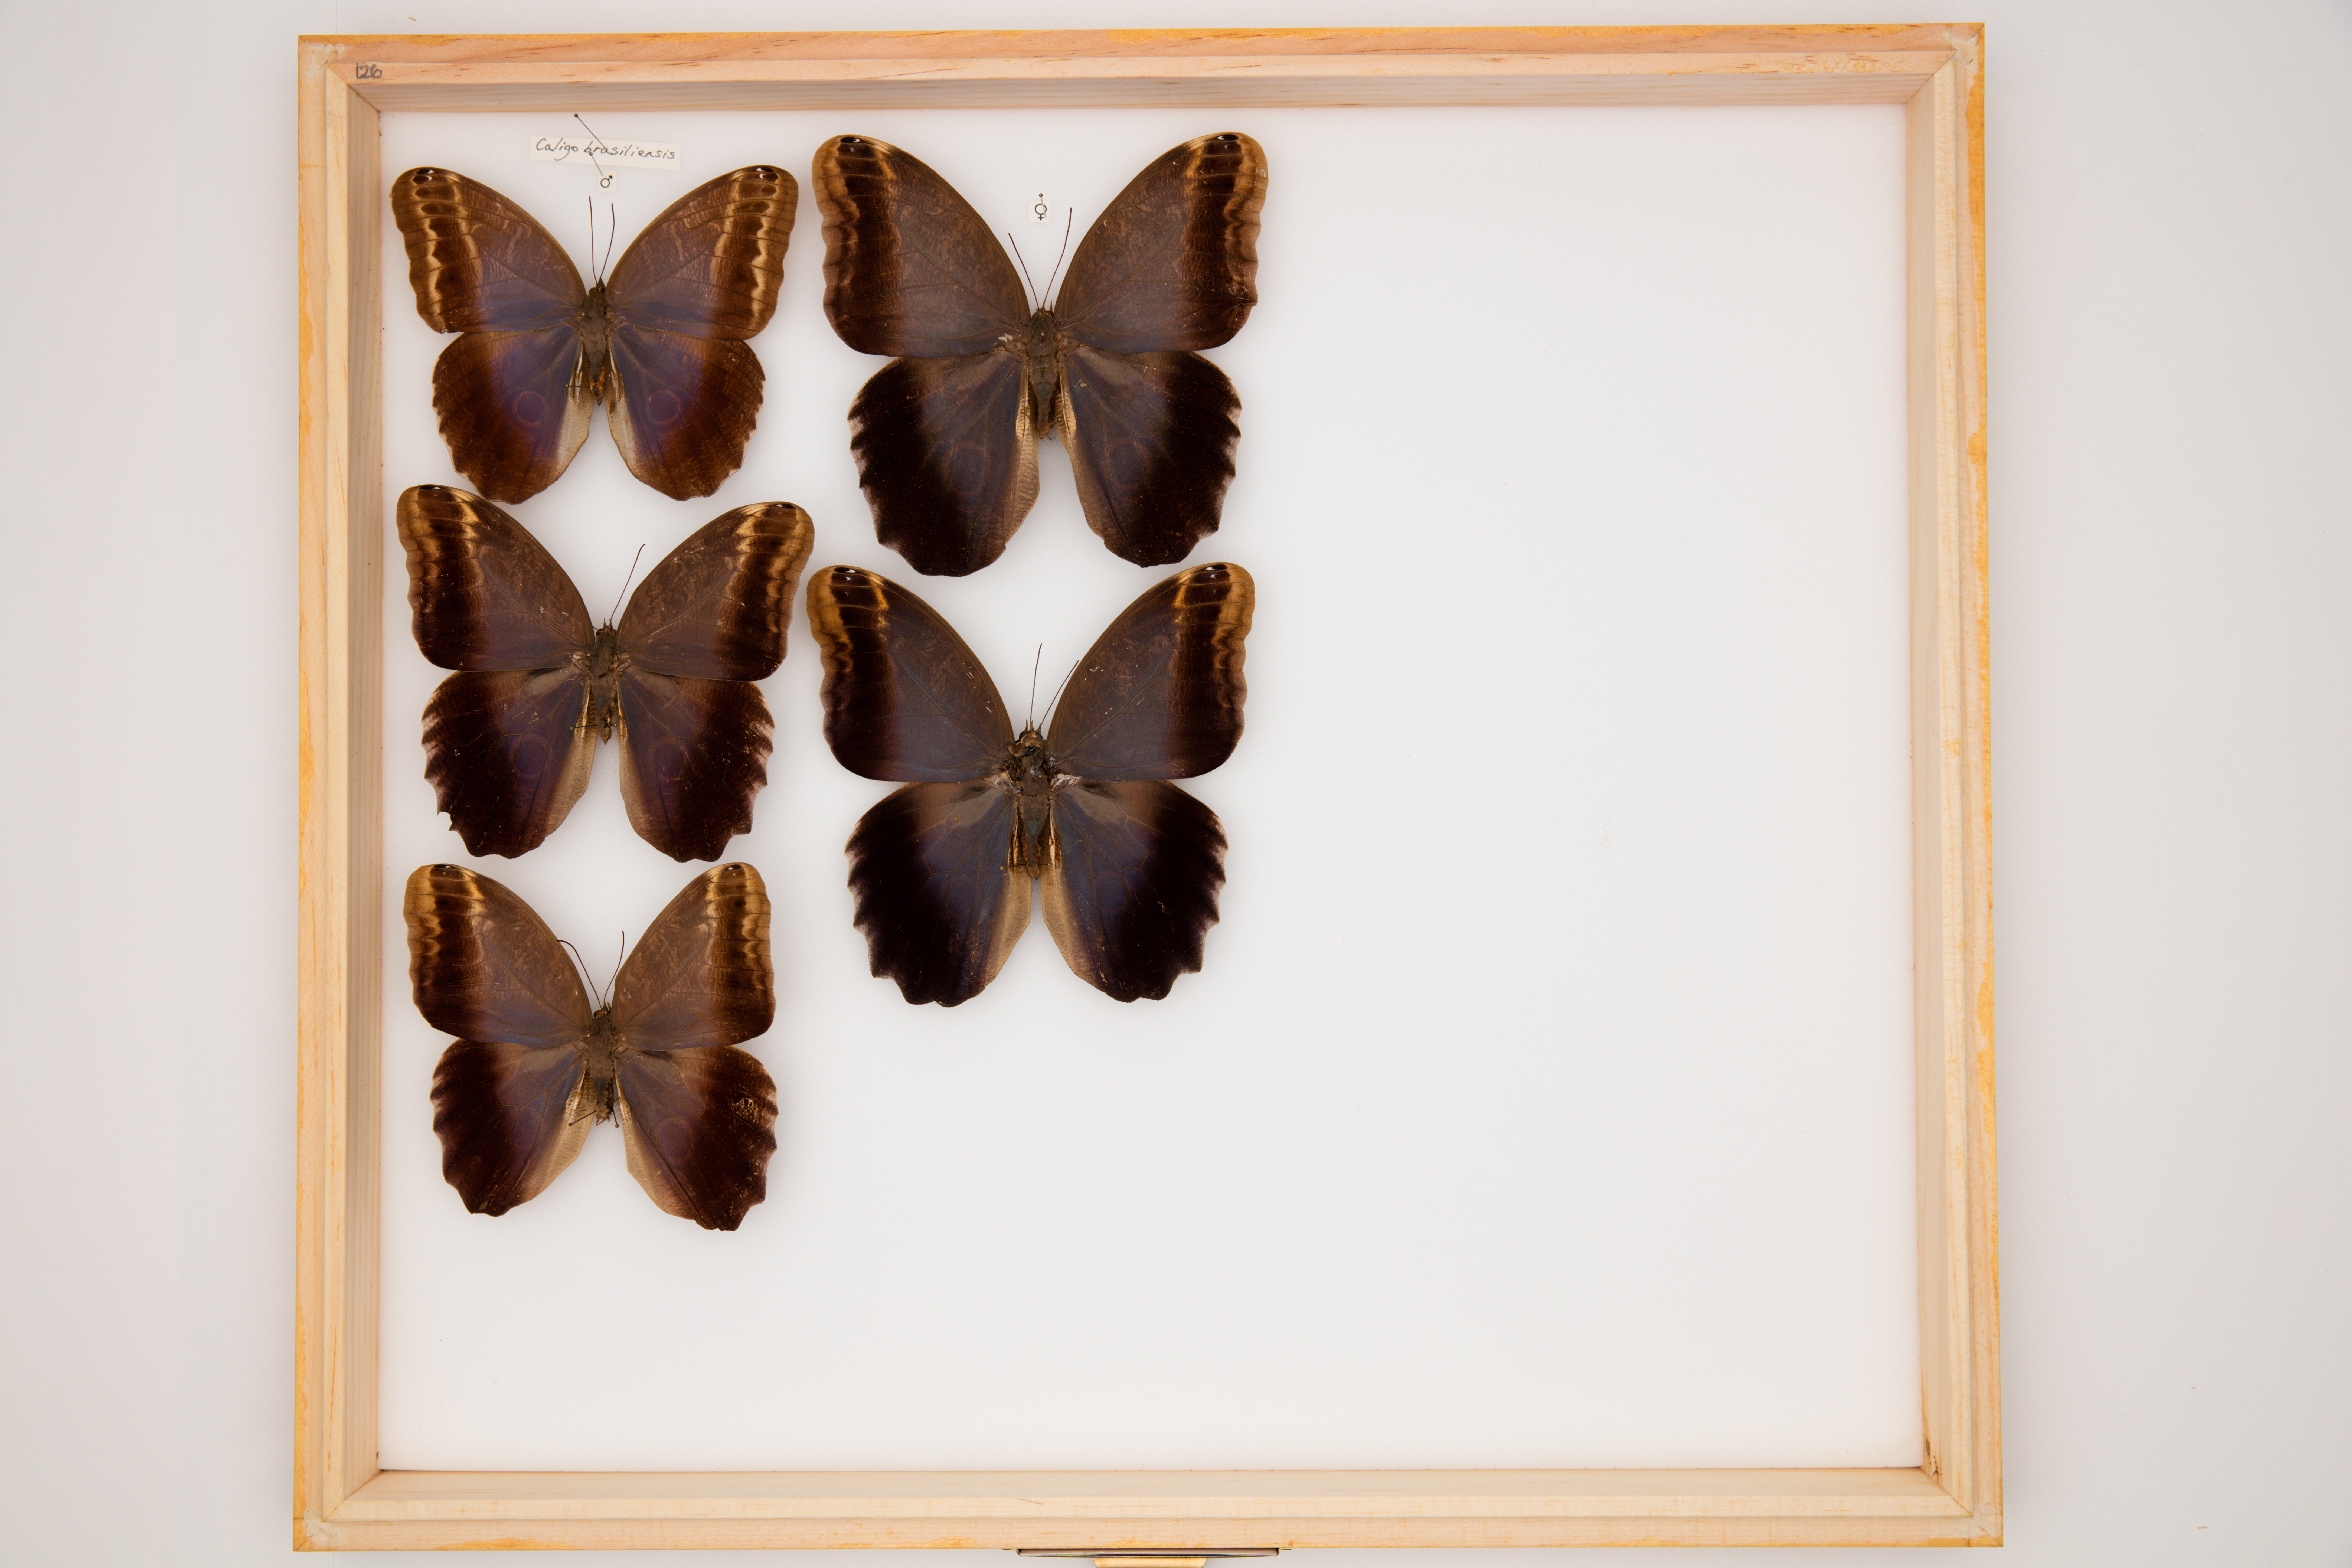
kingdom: Animalia
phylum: Arthropoda
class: Insecta
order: Lepidoptera
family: Nymphalidae
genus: Caligo
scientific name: Caligo brasiliensis
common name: Dark owl-butterfly
